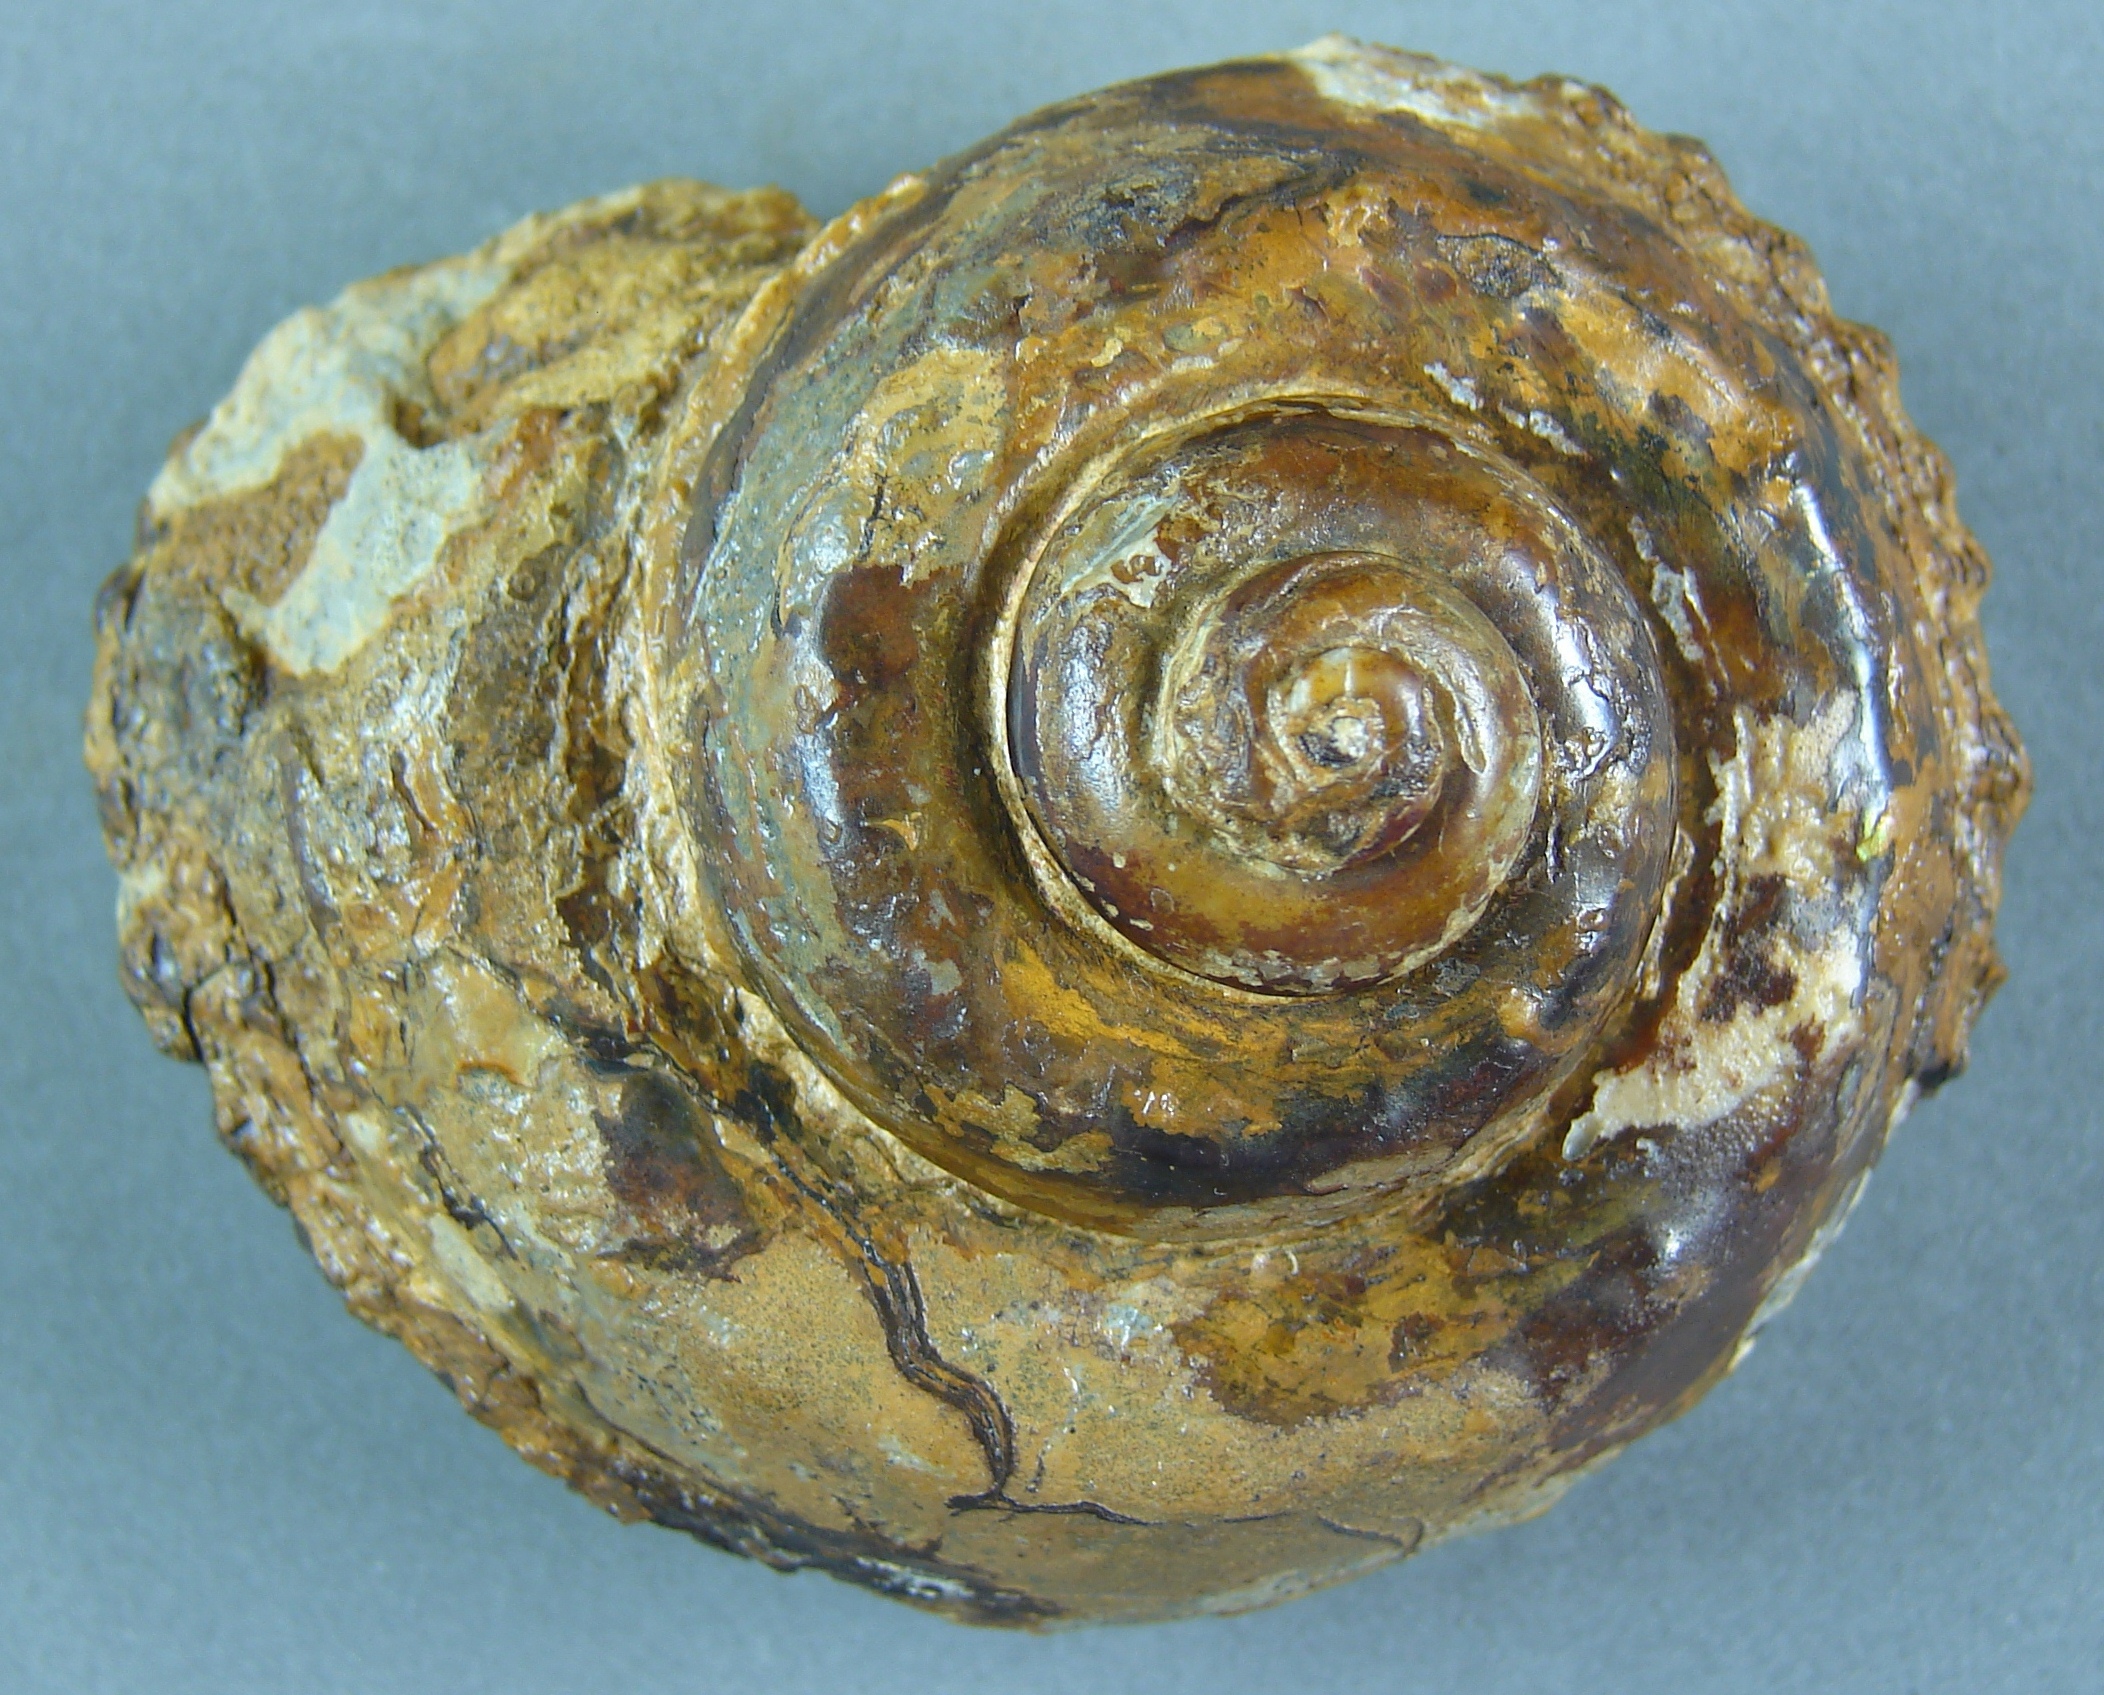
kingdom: Animalia
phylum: Mollusca
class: Gastropoda
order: Pleurotomariida
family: Pleurotomariidae
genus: Pleurotomaria
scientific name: Pleurotomaria rotundata
